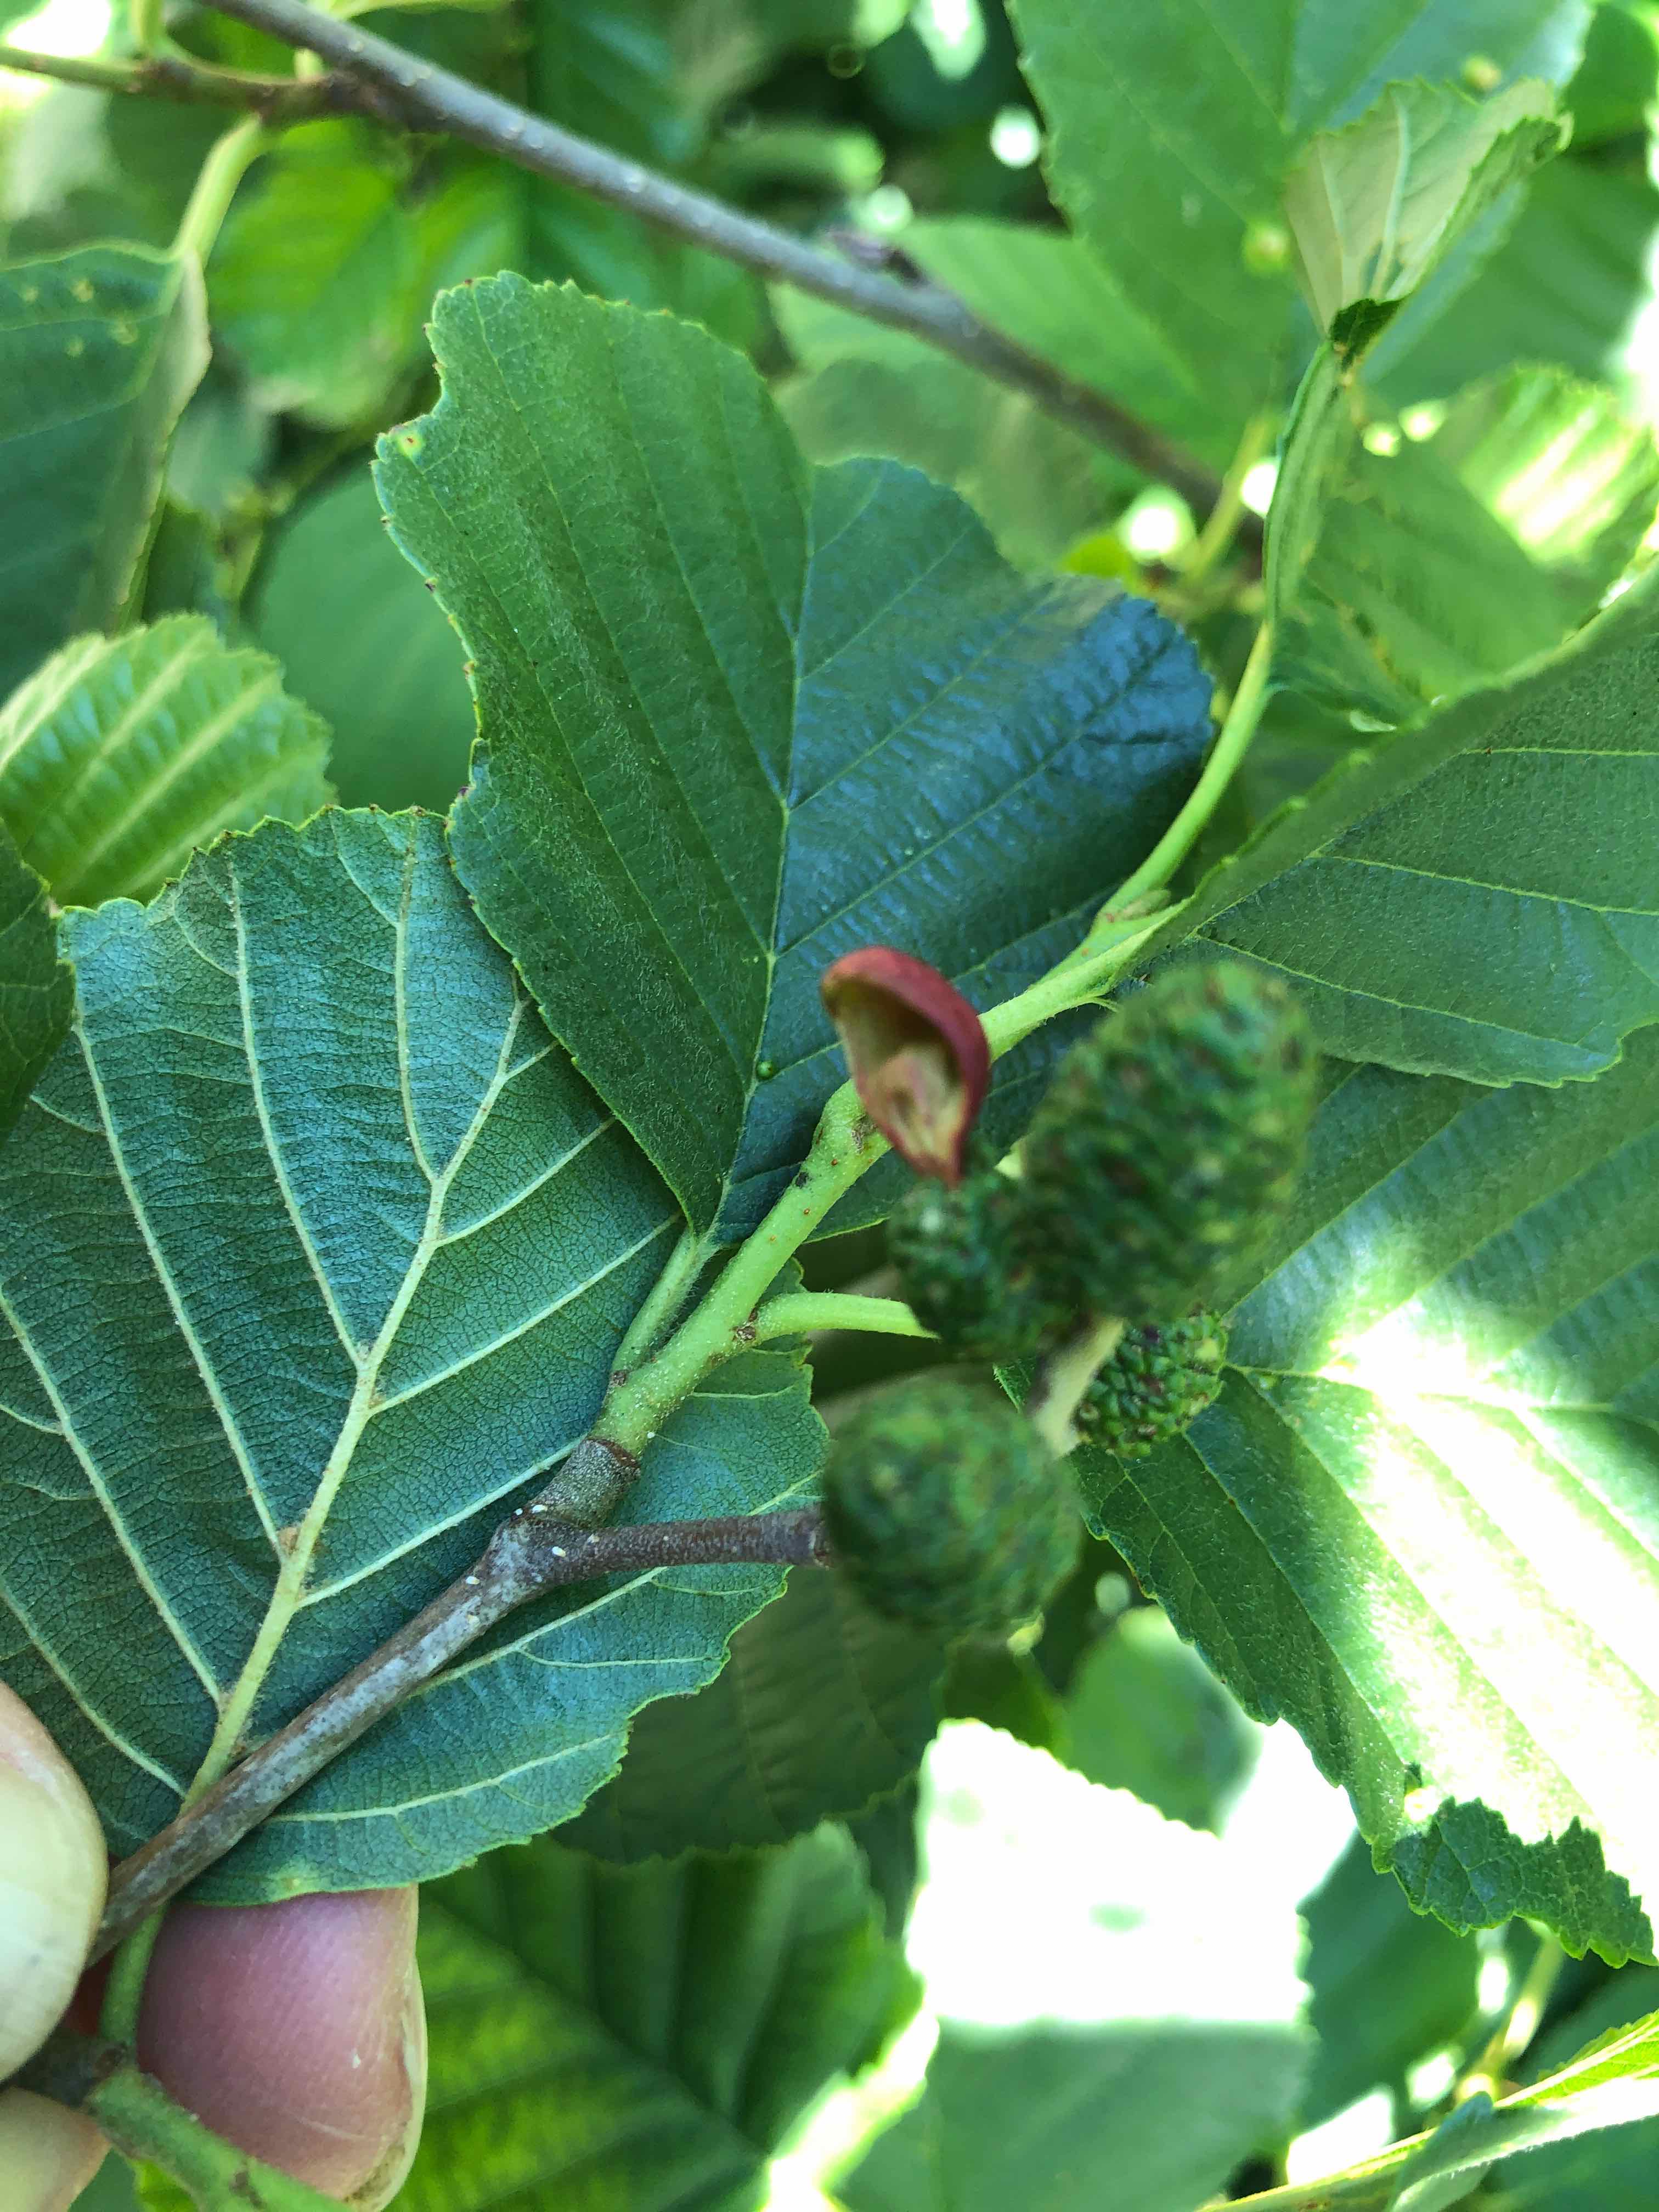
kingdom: Fungi
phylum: Ascomycota
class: Taphrinomycetes
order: Taphrinales
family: Taphrinaceae
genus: Taphrina
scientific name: Taphrina alni
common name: Alder tongue
